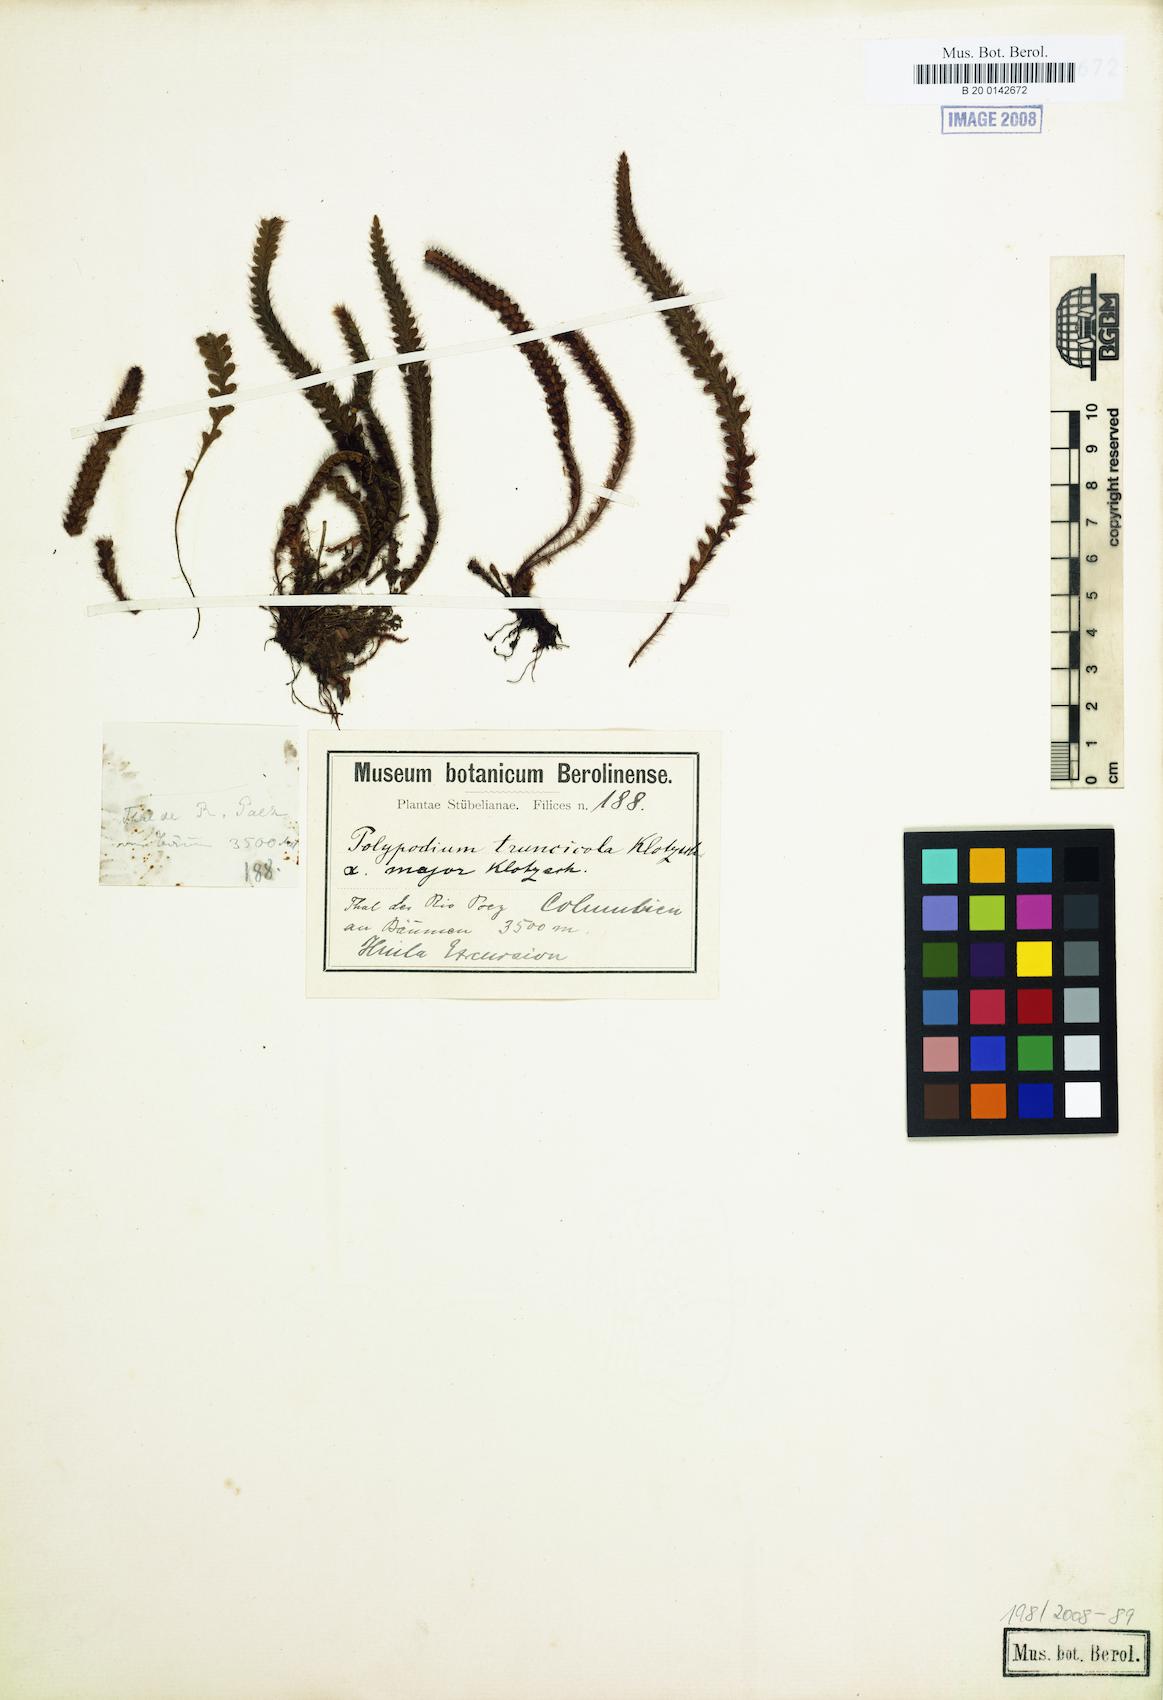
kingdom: Plantae
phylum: Tracheophyta
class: Polypodiopsida
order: Polypodiales
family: Polypodiaceae
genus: Moranopteris
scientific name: Moranopteris aphelolepis
